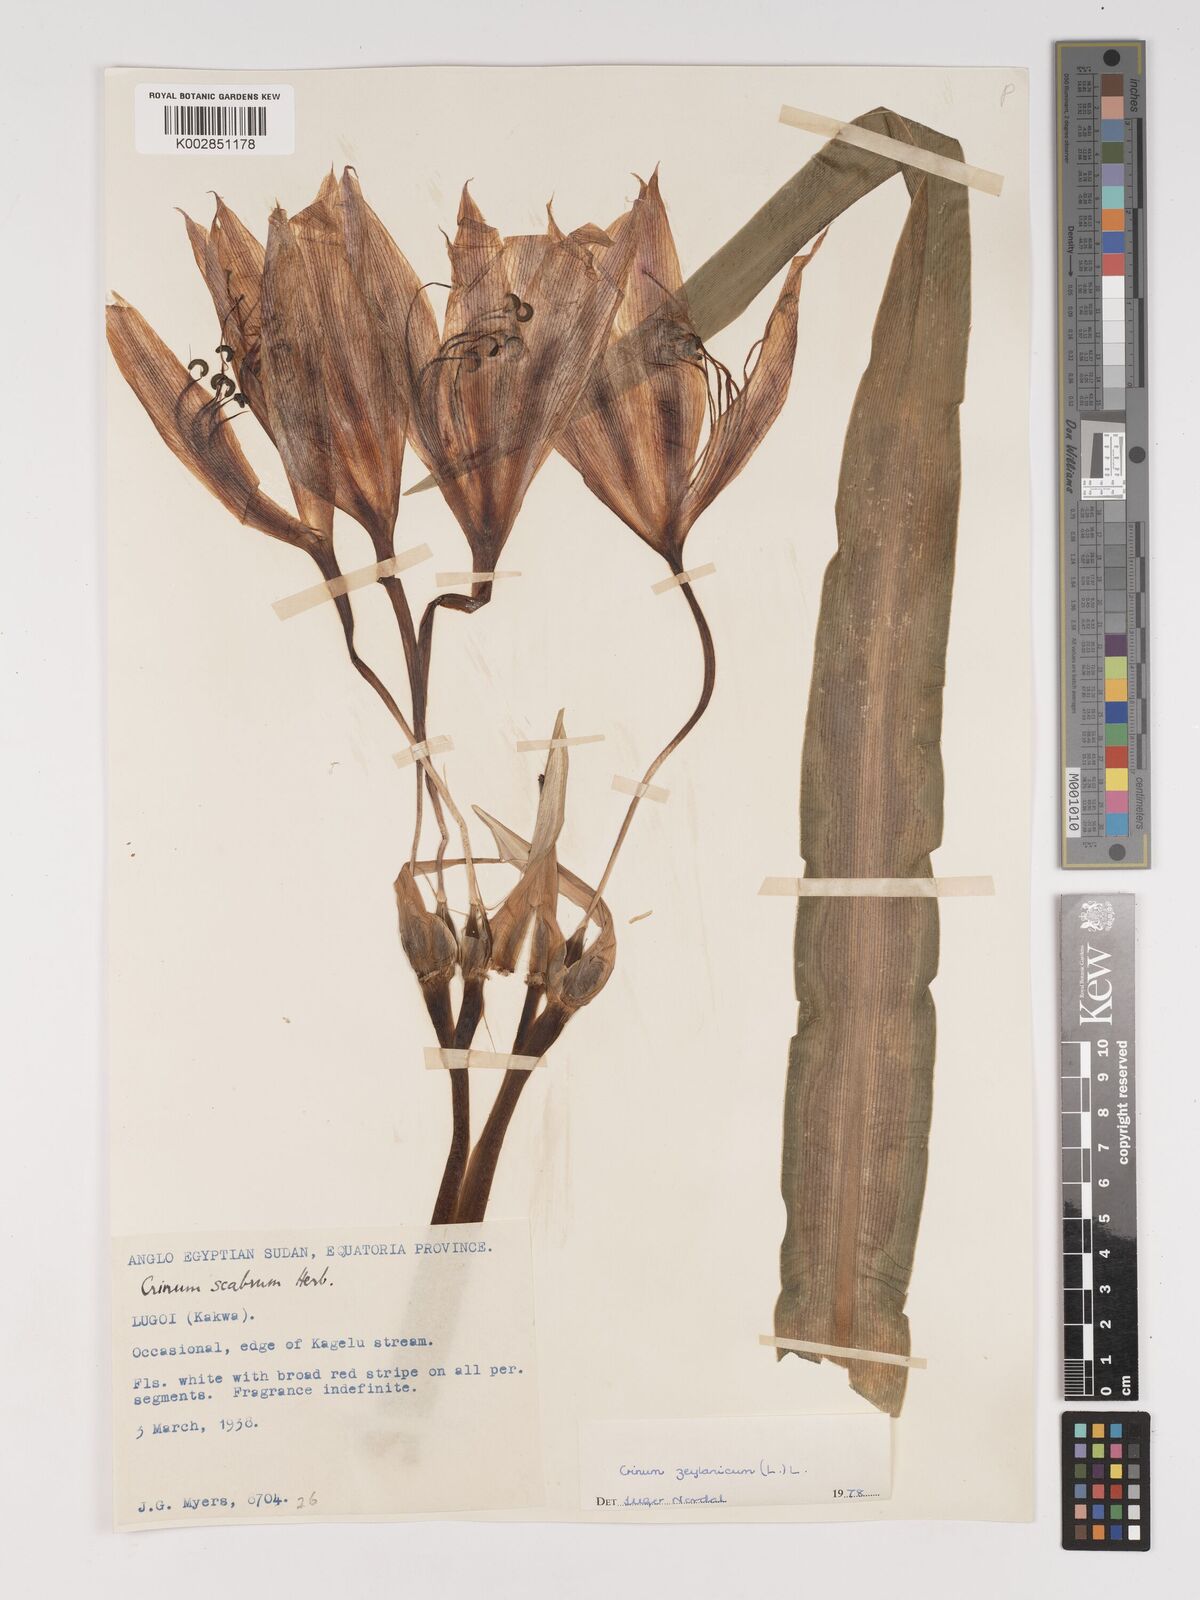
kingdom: Plantae
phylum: Tracheophyta
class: Liliopsida
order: Asparagales
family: Amaryllidaceae
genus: Crinum
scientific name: Crinum zeylanicum
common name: Ceylon swamplily
